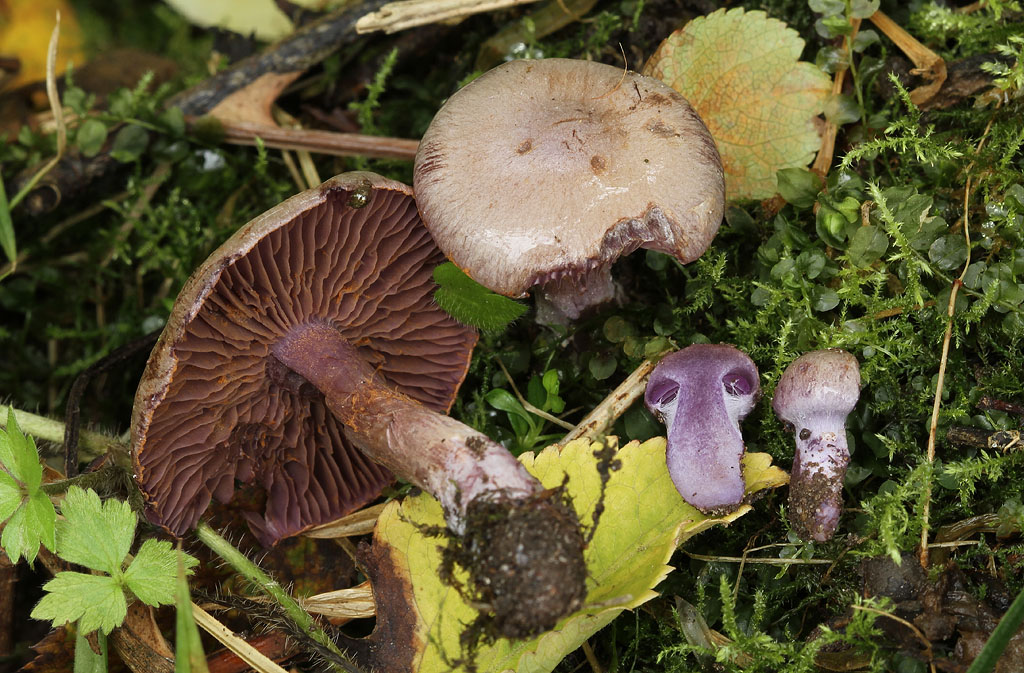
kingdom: Fungi
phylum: Basidiomycota
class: Agaricomycetes
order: Agaricales
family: Cortinariaceae
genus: Thaxterogaster
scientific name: Thaxterogaster subporphyropus
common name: ametyst-slørhat
